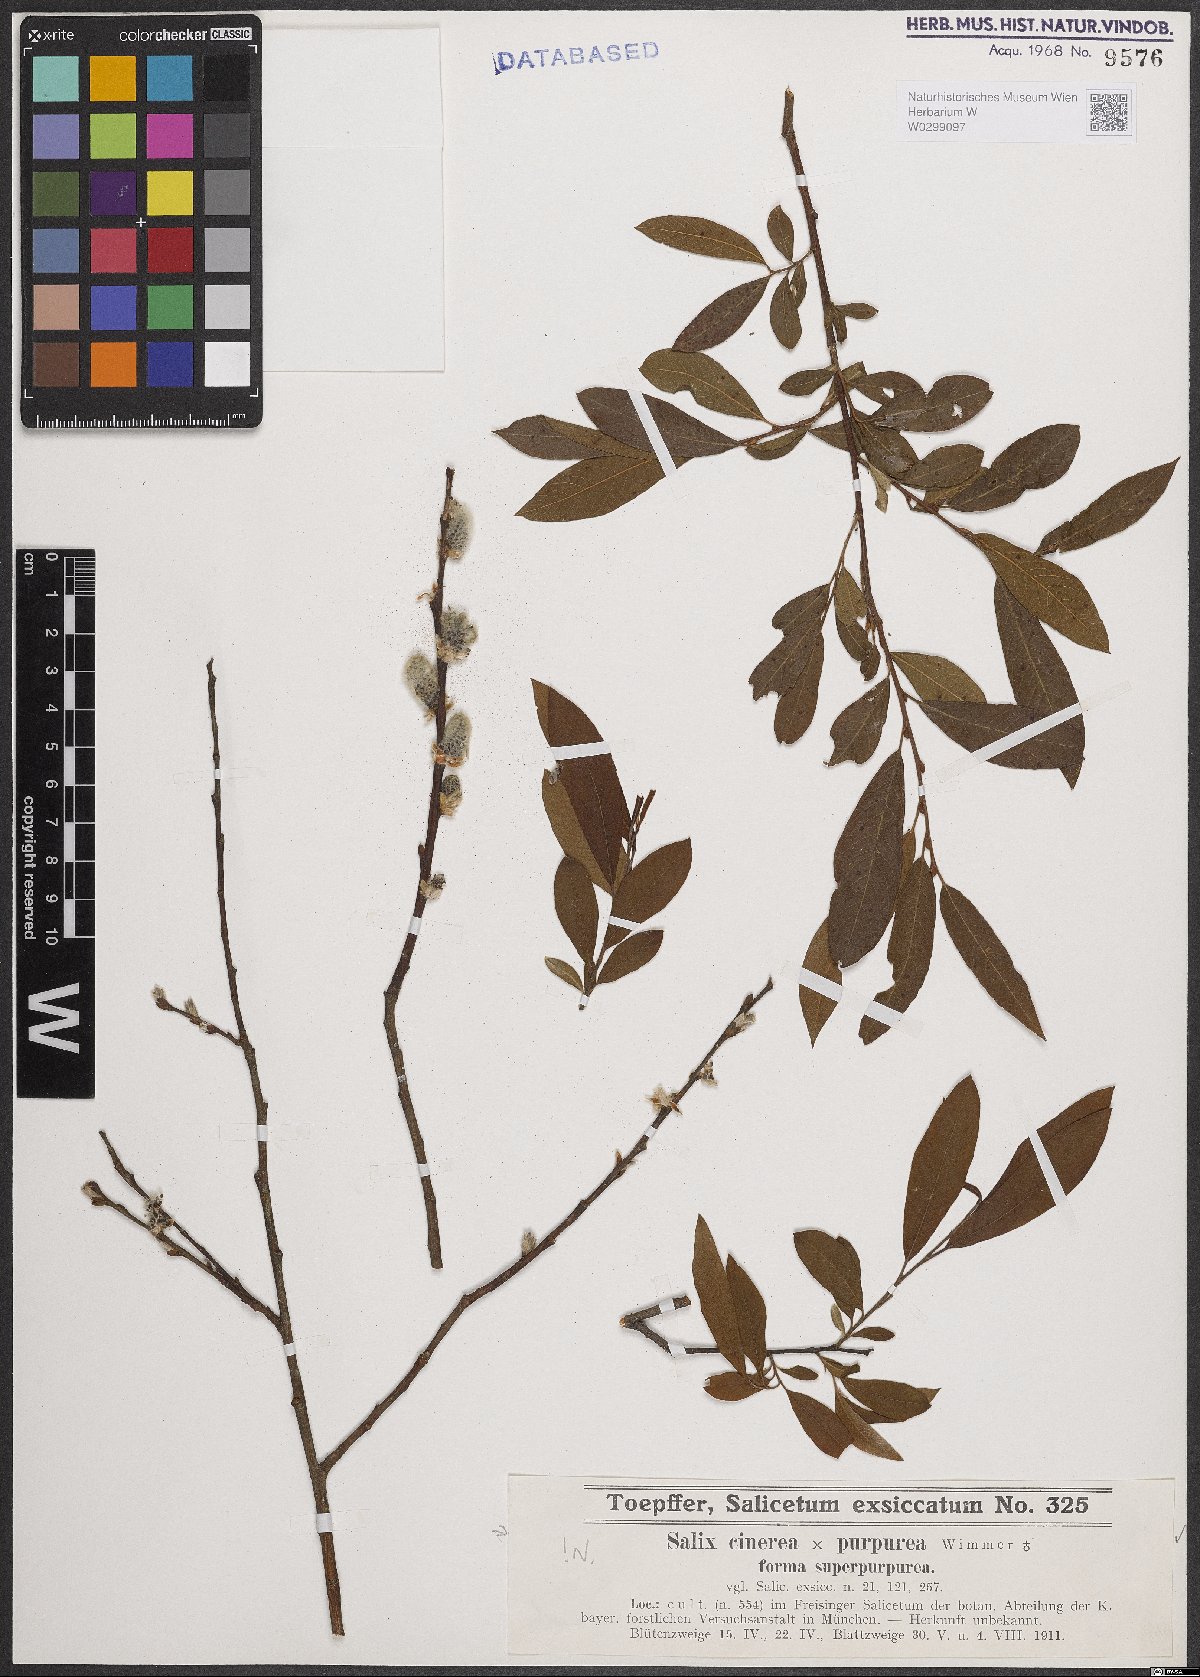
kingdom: Plantae
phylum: Tracheophyta
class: Magnoliopsida
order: Malpighiales
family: Salicaceae
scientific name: Salicaceae
